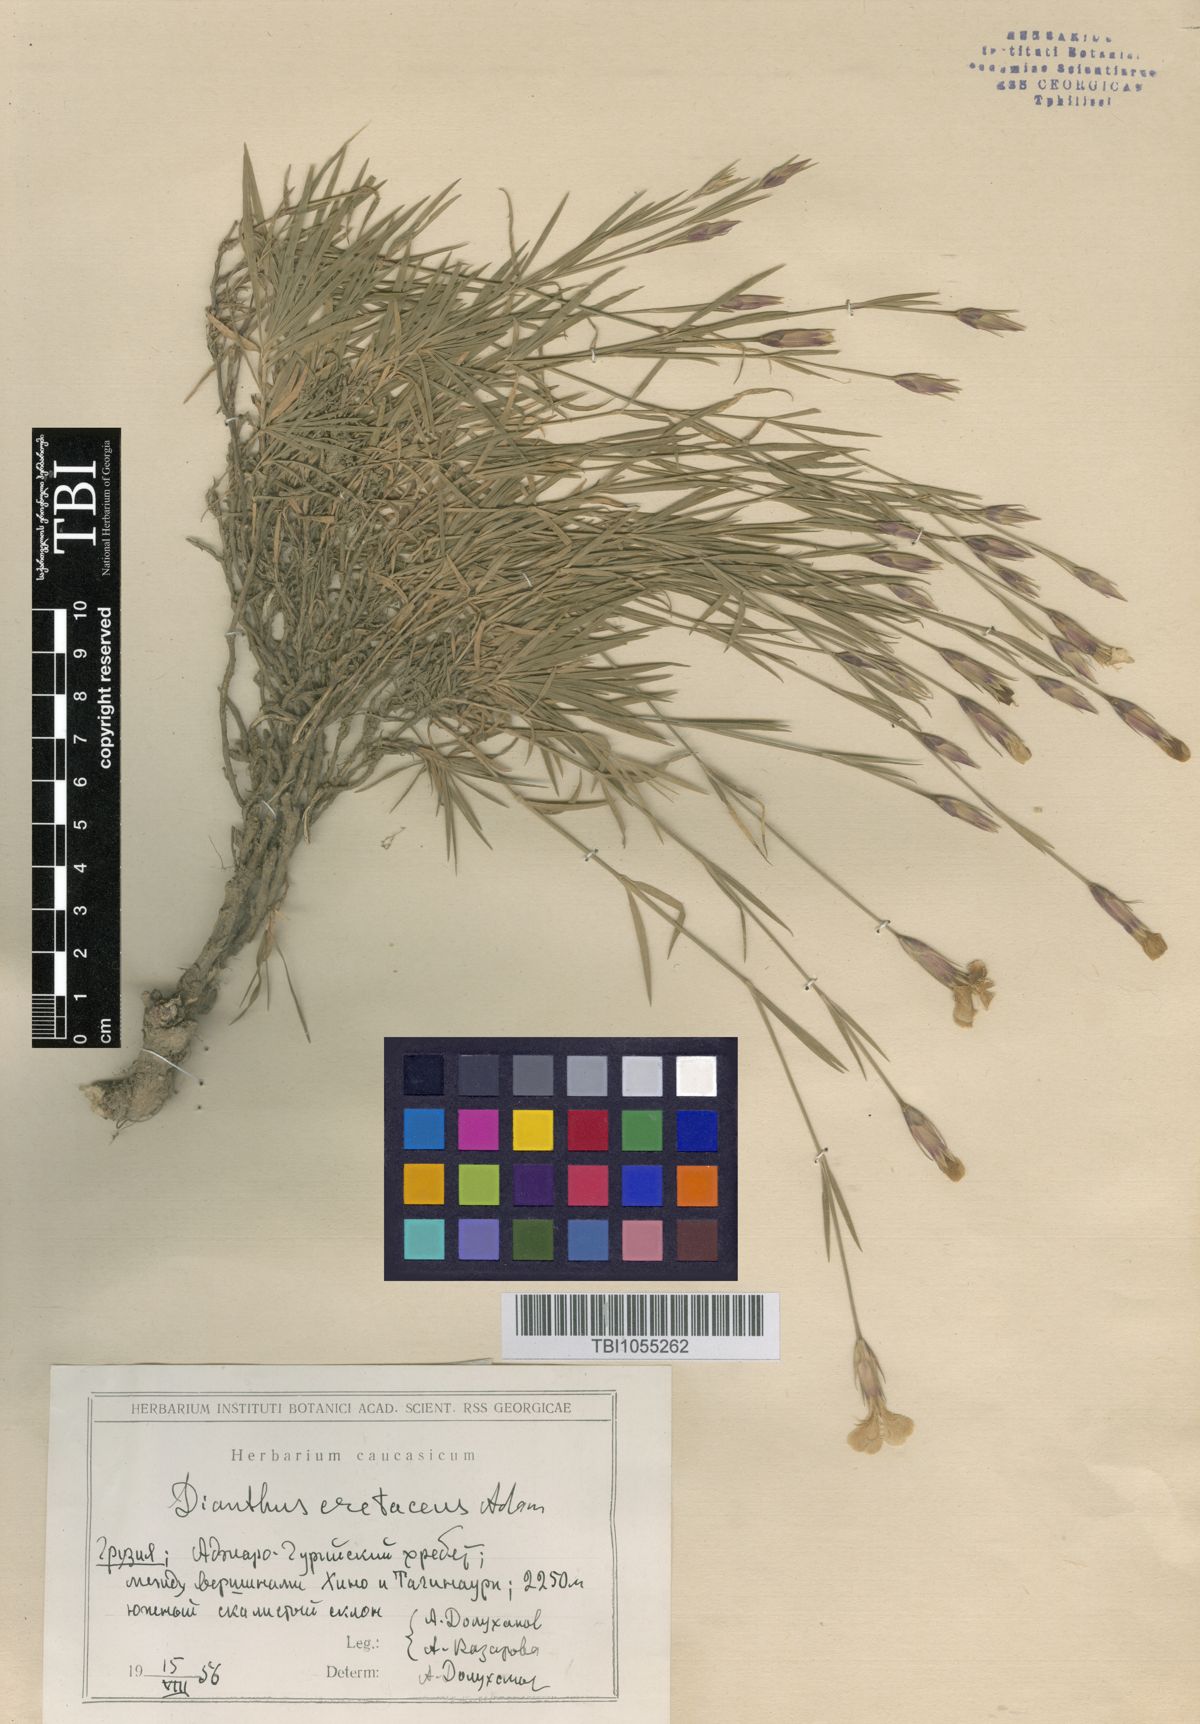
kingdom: Plantae
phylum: Tracheophyta
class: Magnoliopsida
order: Caryophyllales
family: Caryophyllaceae
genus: Dianthus
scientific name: Dianthus cretaceus
